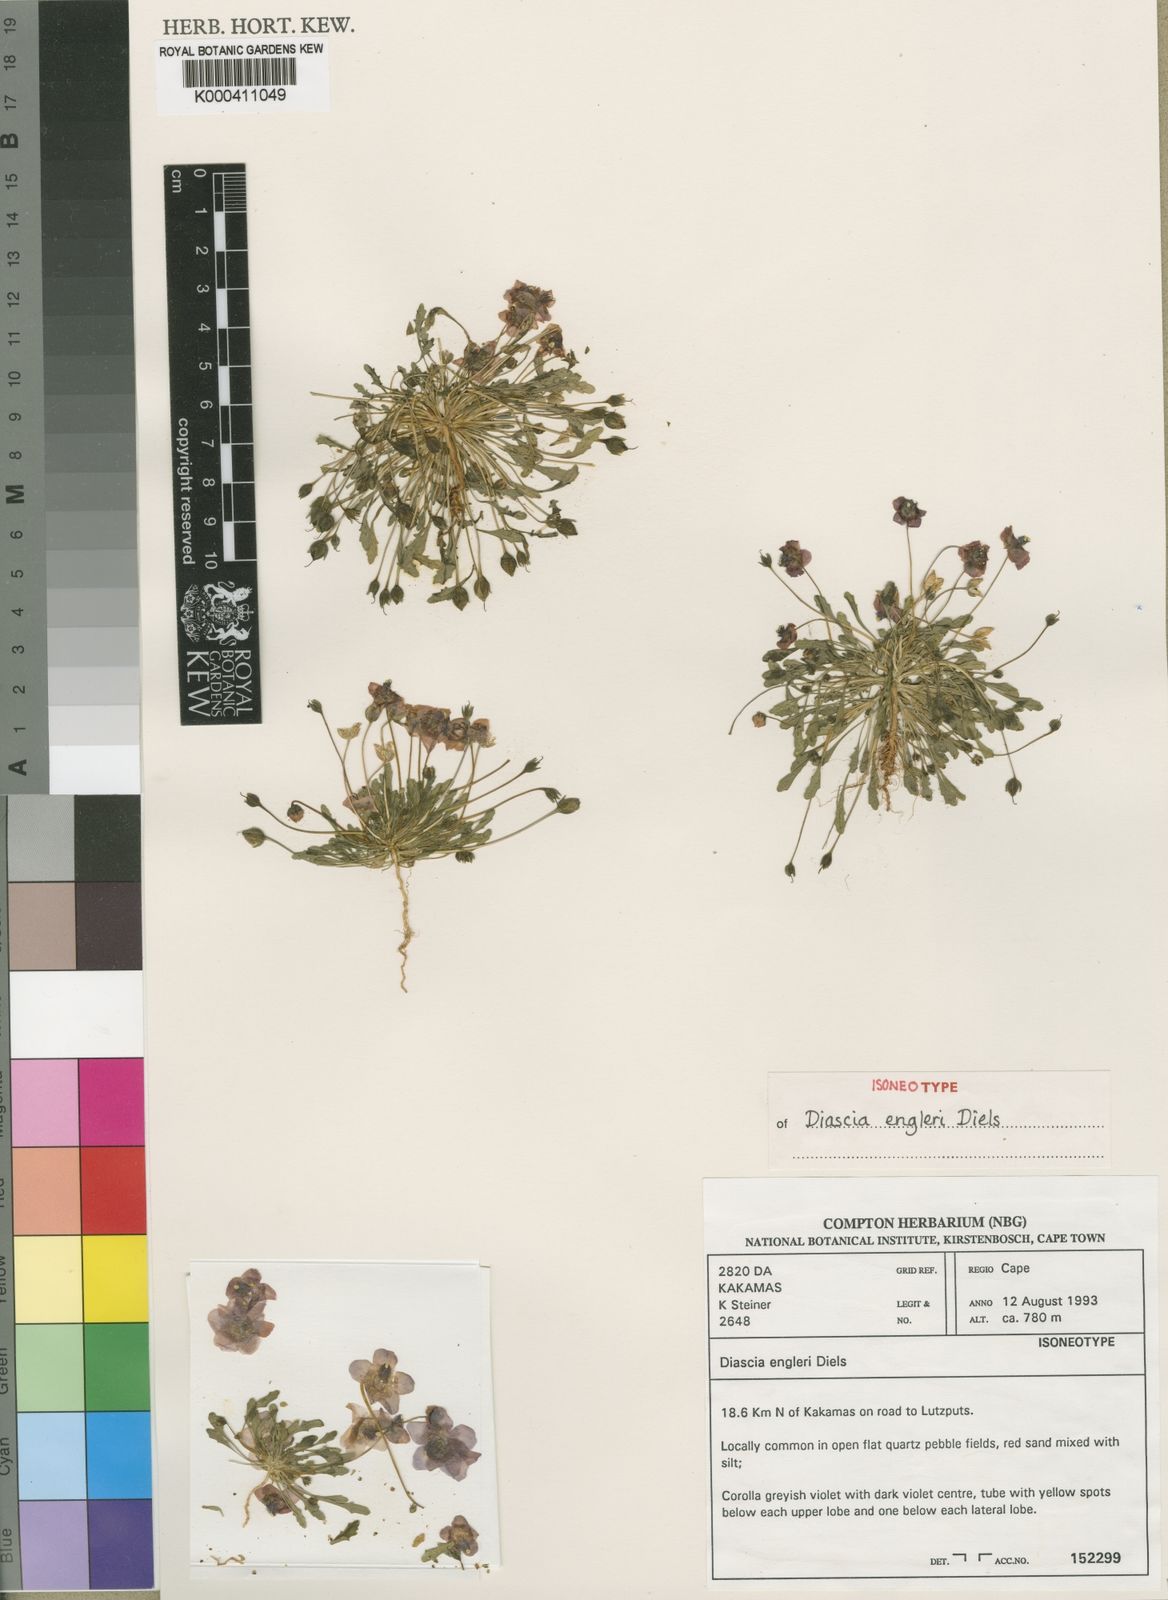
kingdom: Plantae
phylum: Tracheophyta
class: Magnoliopsida
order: Lamiales
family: Scrophulariaceae
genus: Diascia
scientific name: Diascia engleri
